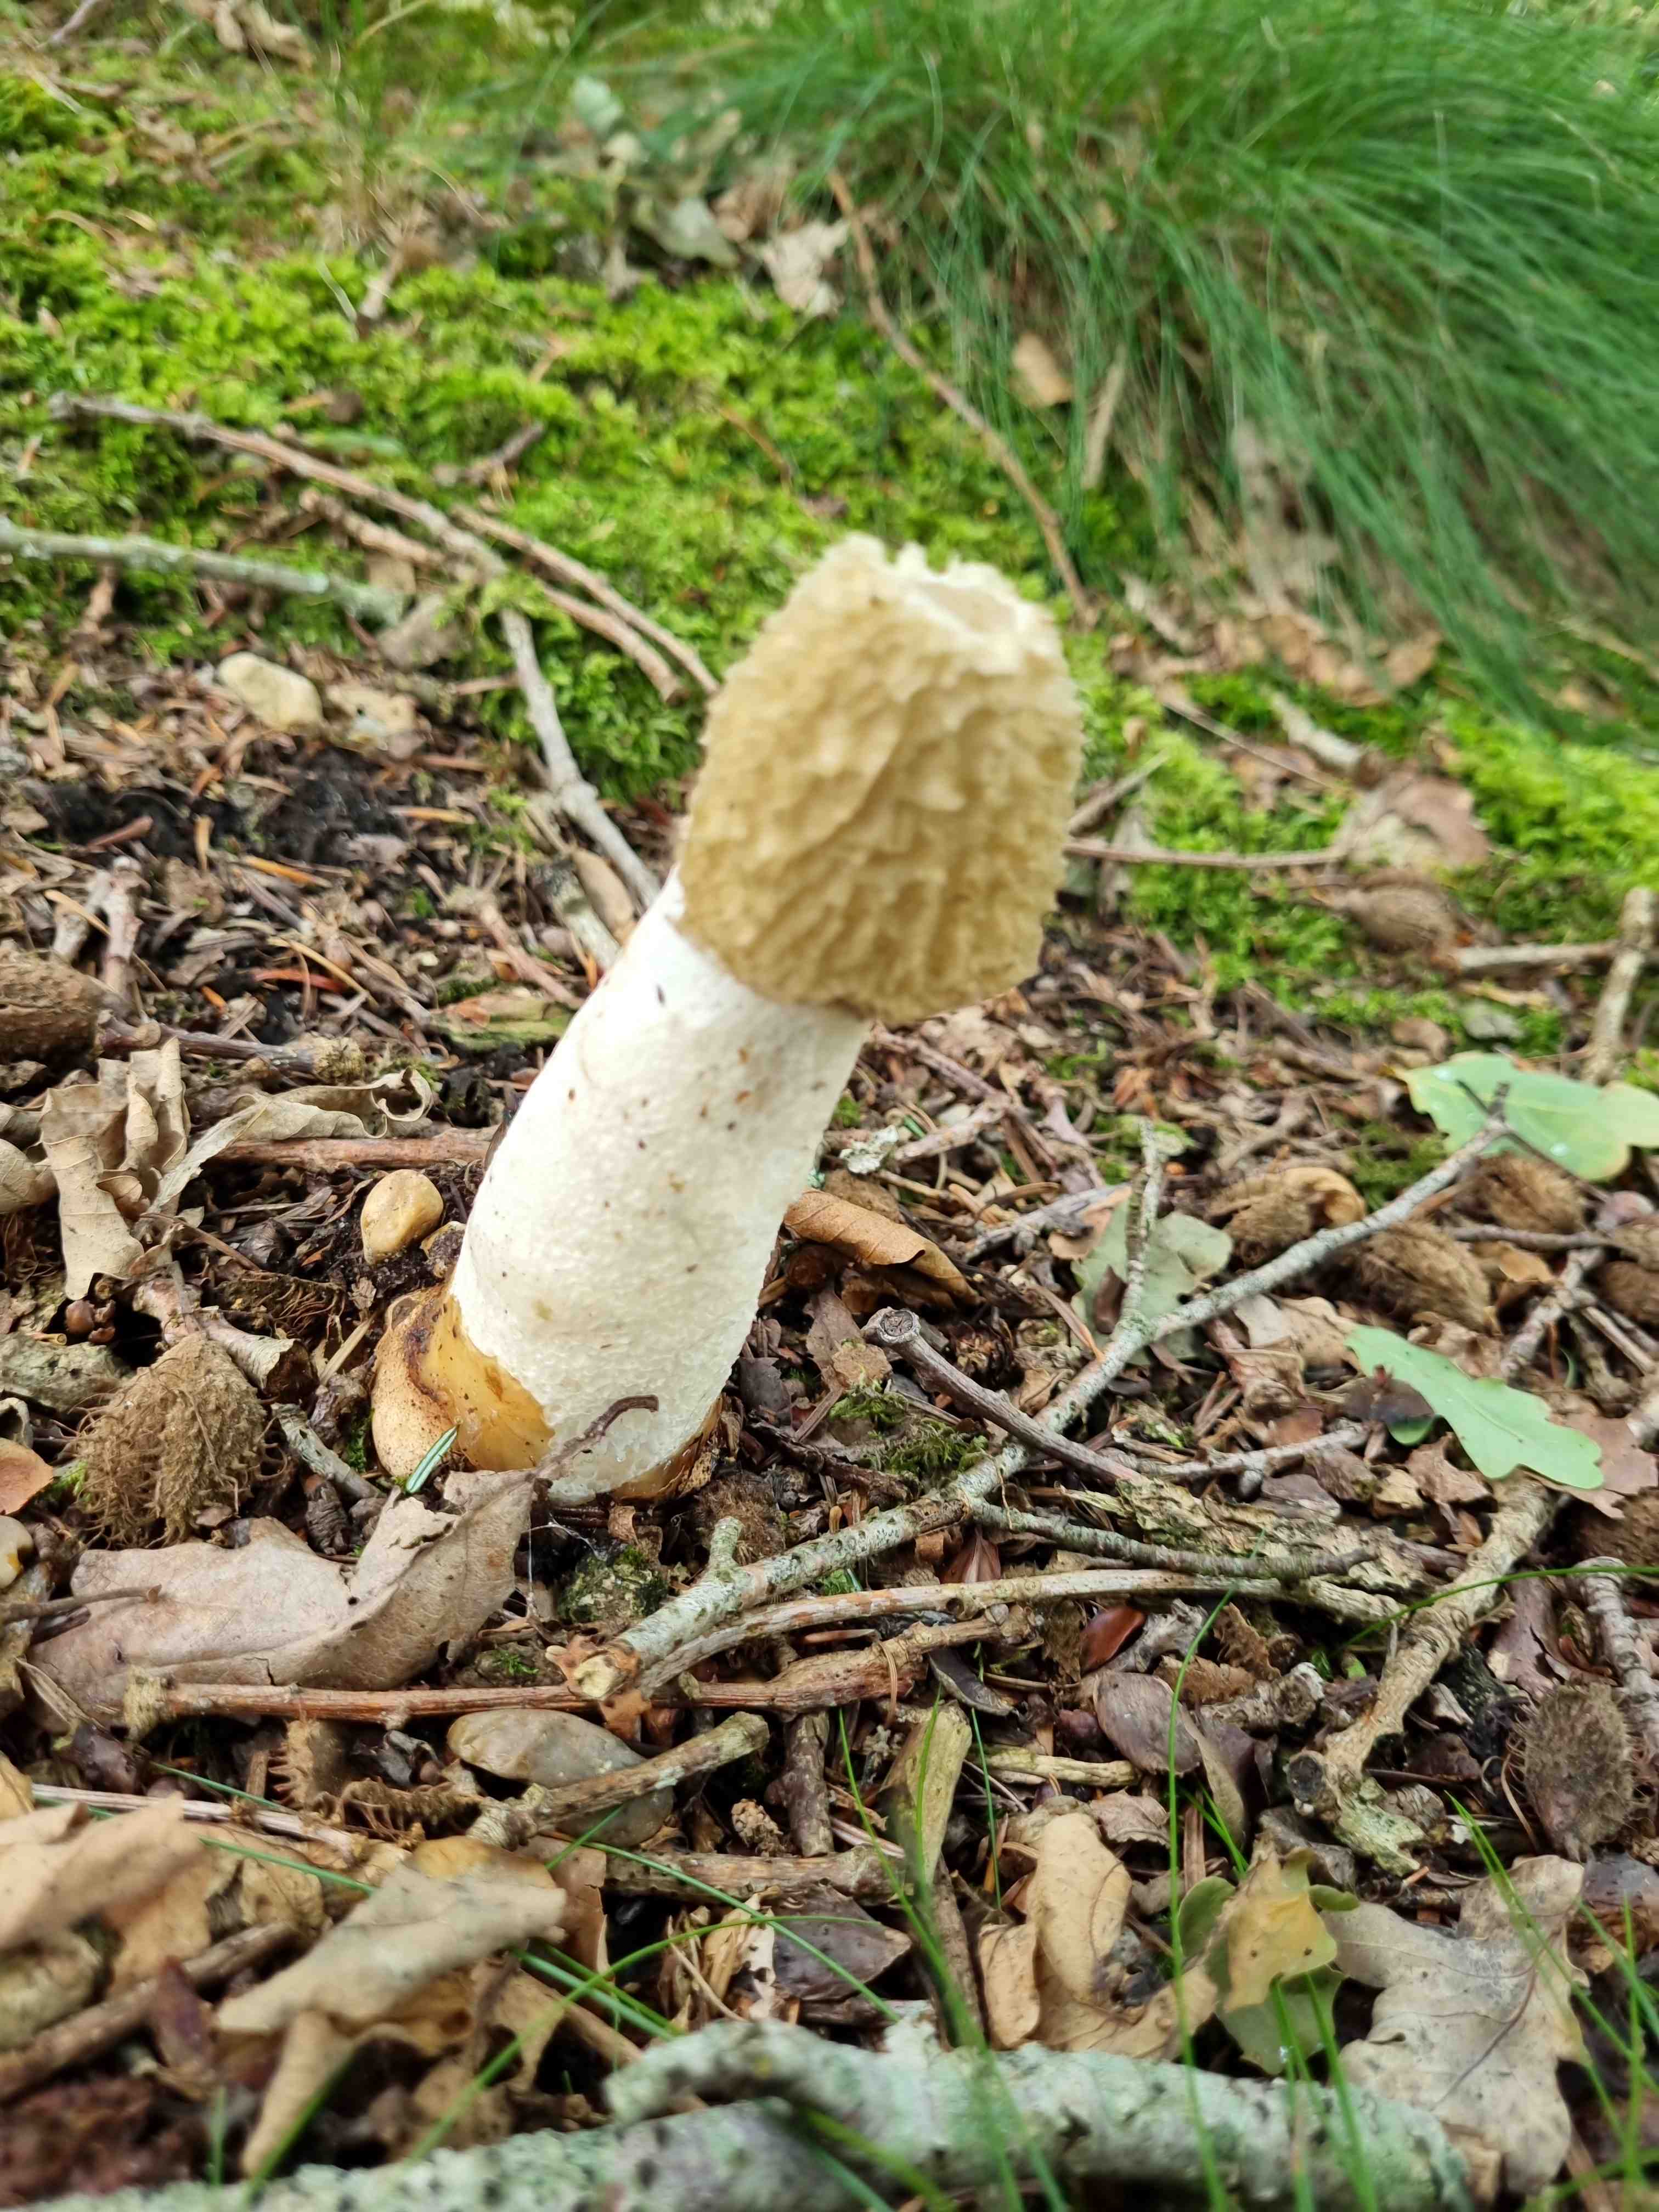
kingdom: Fungi
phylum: Basidiomycota
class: Agaricomycetes
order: Phallales
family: Phallaceae
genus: Phallus
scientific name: Phallus impudicus
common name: almindelig stinksvamp
